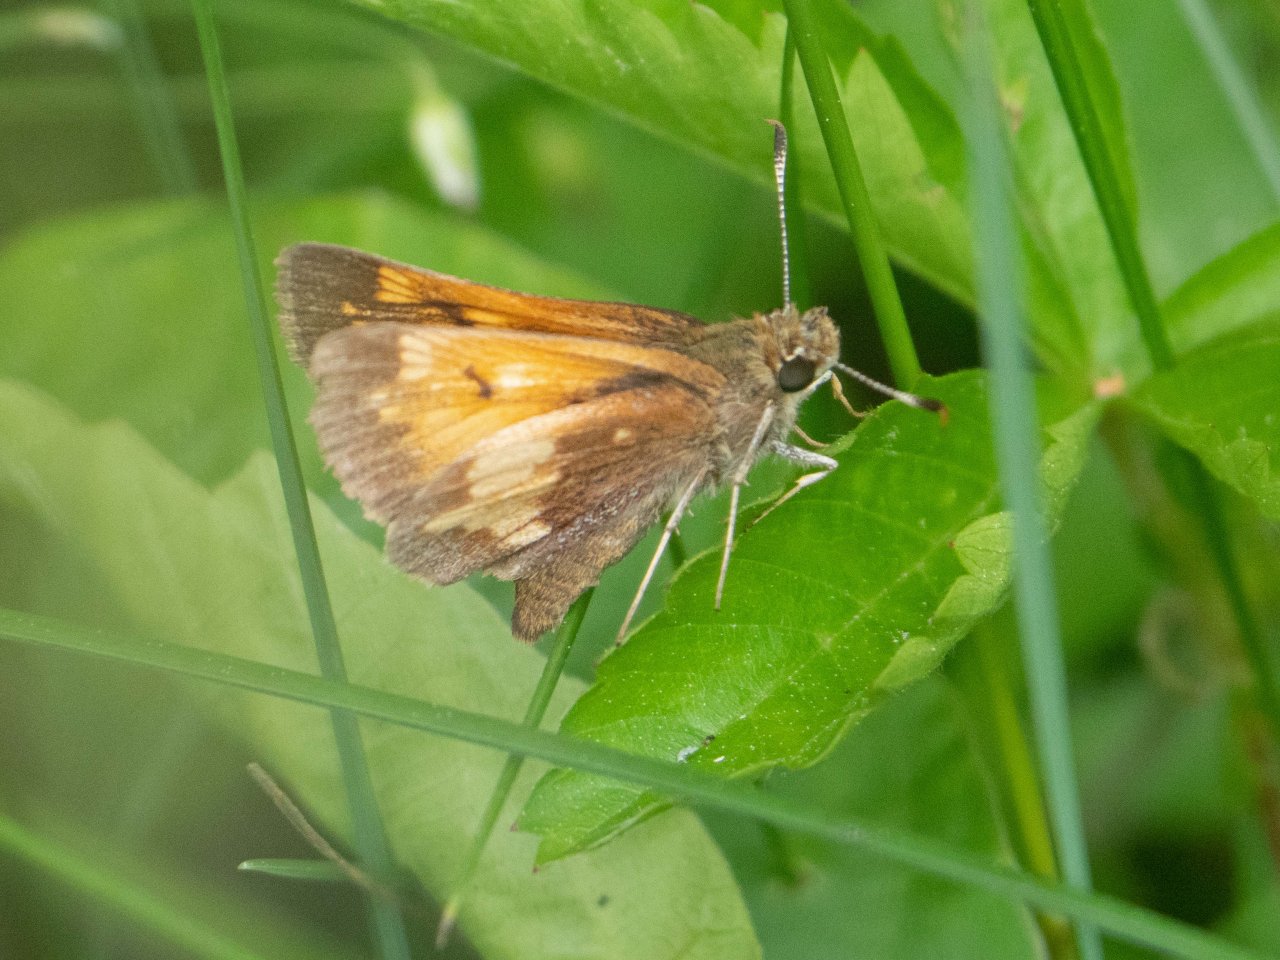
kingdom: Animalia
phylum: Arthropoda
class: Insecta
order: Lepidoptera
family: Hesperiidae
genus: Lon
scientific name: Lon hobomok
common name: Hobomok Skipper
